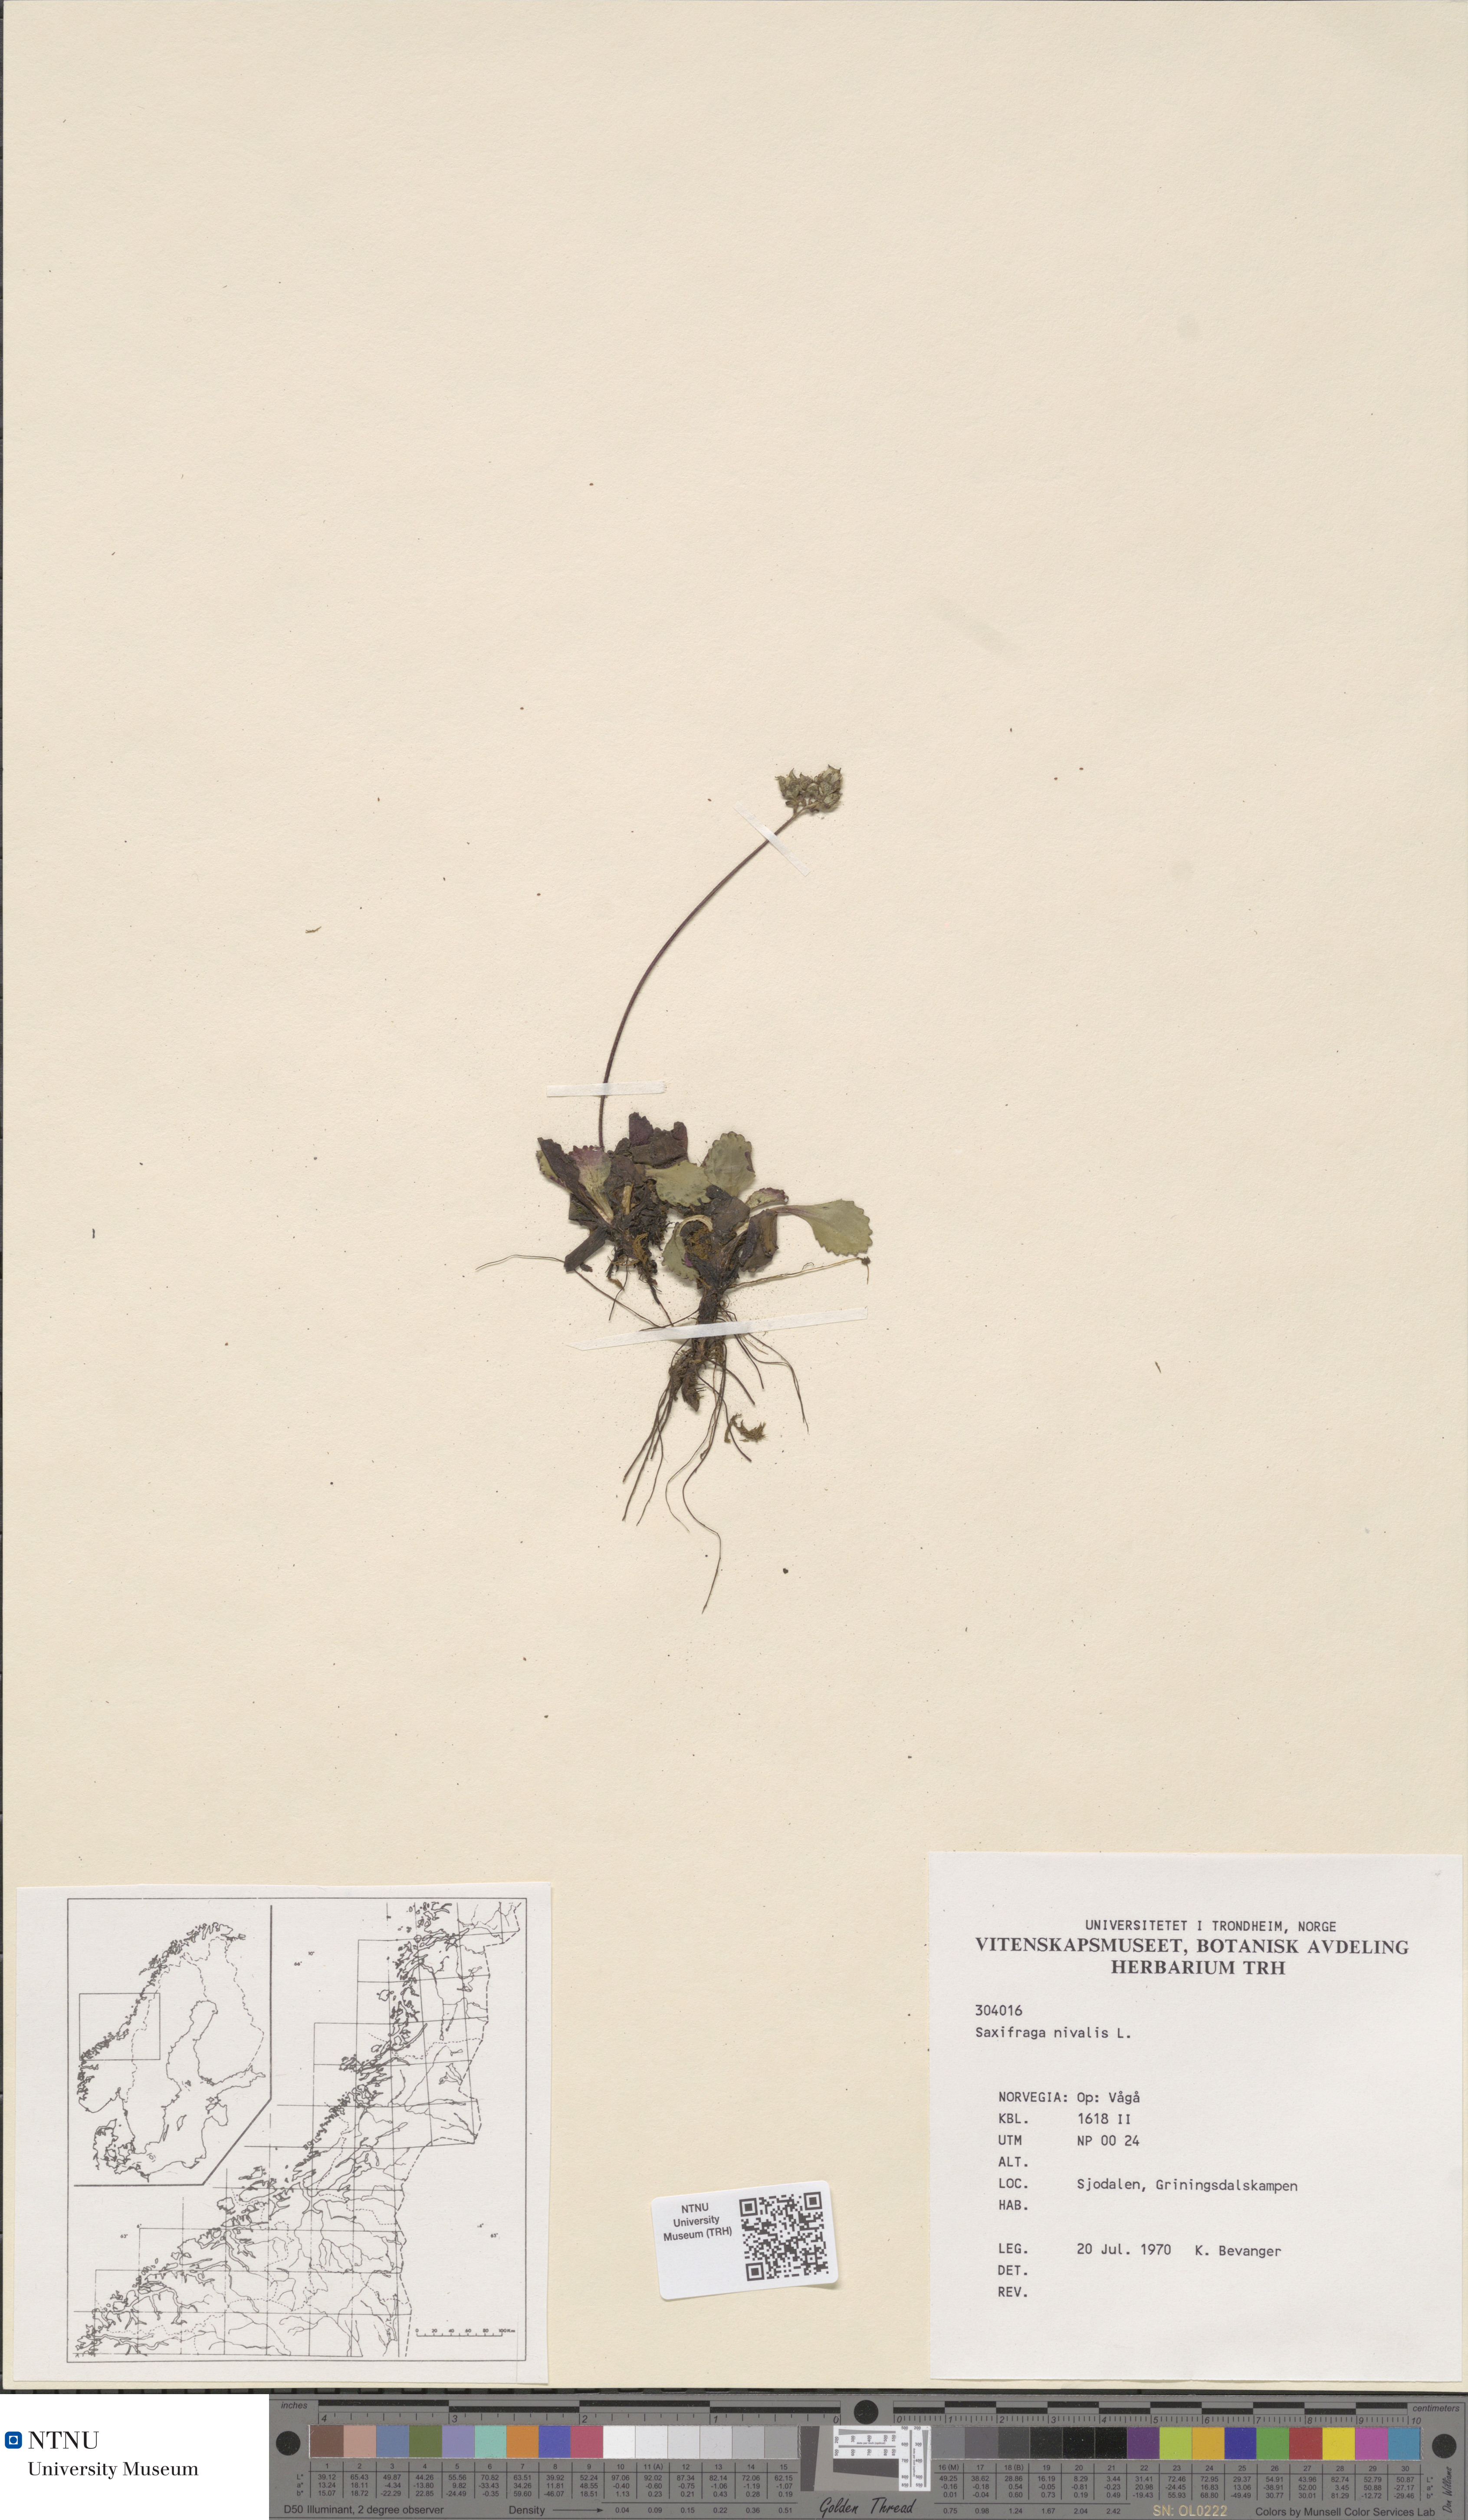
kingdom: Plantae
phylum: Tracheophyta
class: Magnoliopsida
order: Saxifragales
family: Saxifragaceae
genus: Micranthes
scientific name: Micranthes nivalis
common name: Alpine saxifrage
